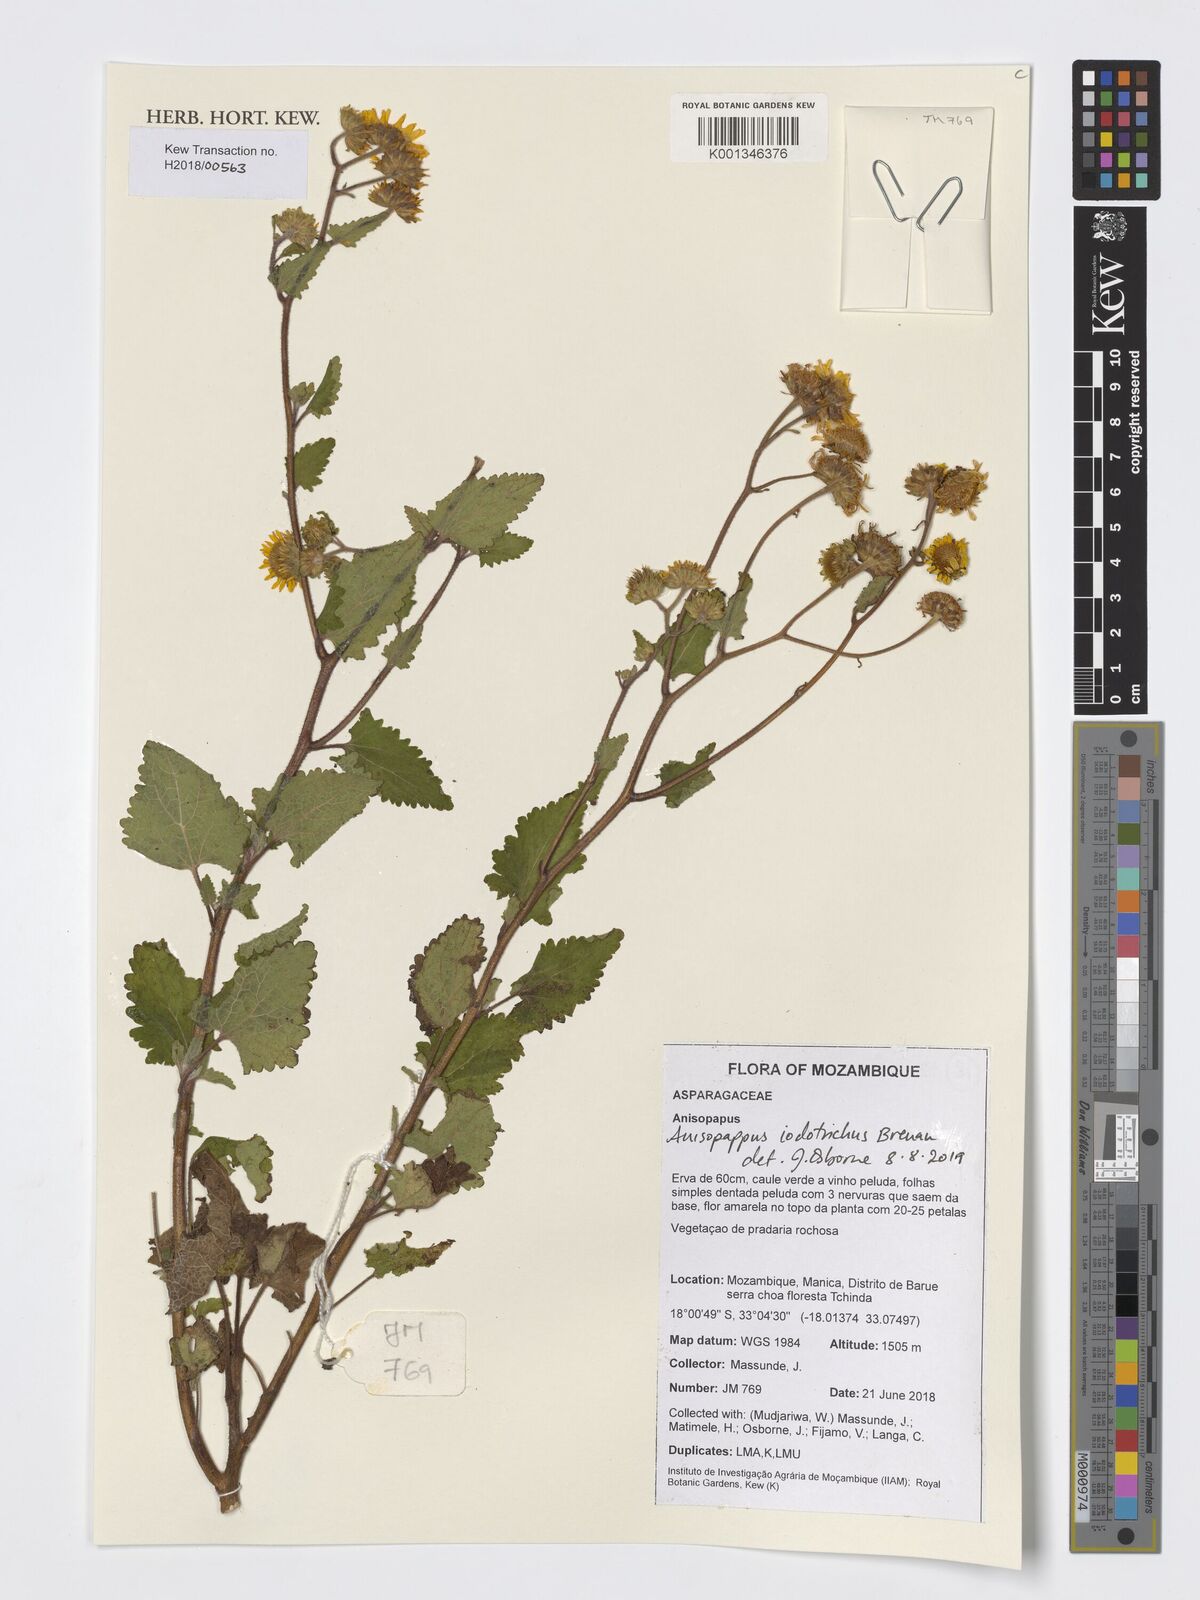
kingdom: Plantae
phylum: Tracheophyta
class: Magnoliopsida
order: Asterales
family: Asteraceae
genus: Anisopappus
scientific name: Anisopappus buchwaldii
